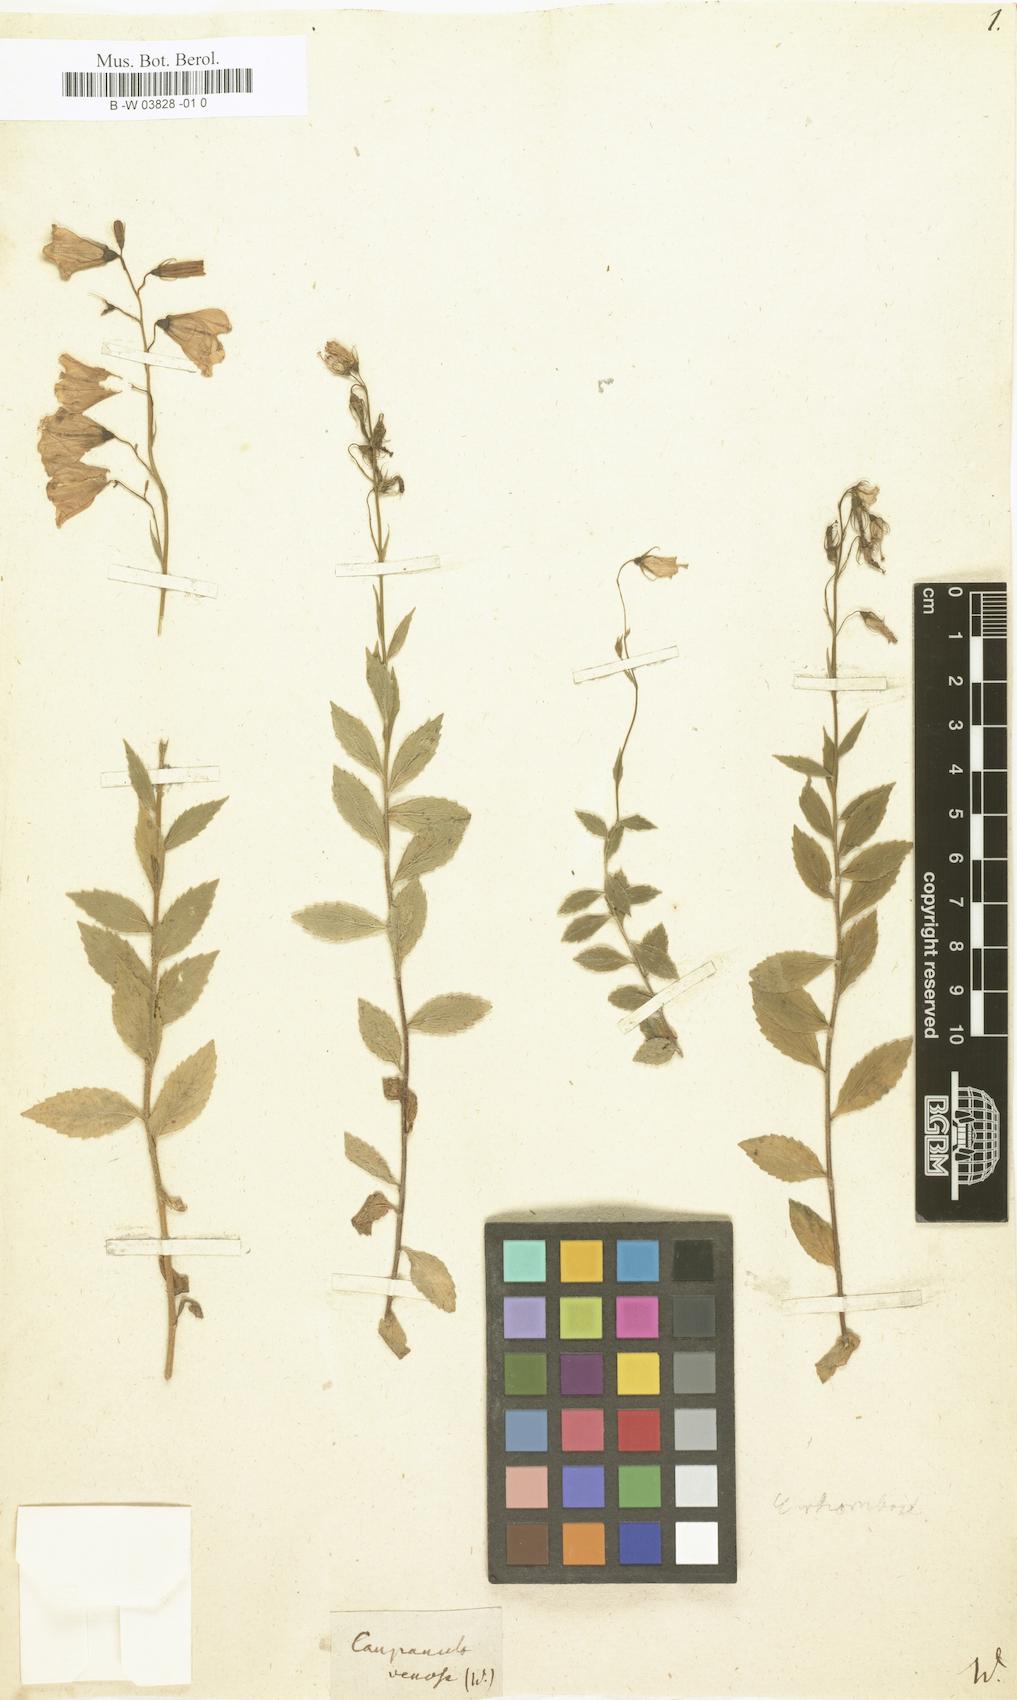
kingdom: Plantae
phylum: Tracheophyta
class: Magnoliopsida
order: Asterales
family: Campanulaceae
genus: Campanula
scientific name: Campanula rhomboidalis
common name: Broad-leaved harebell
